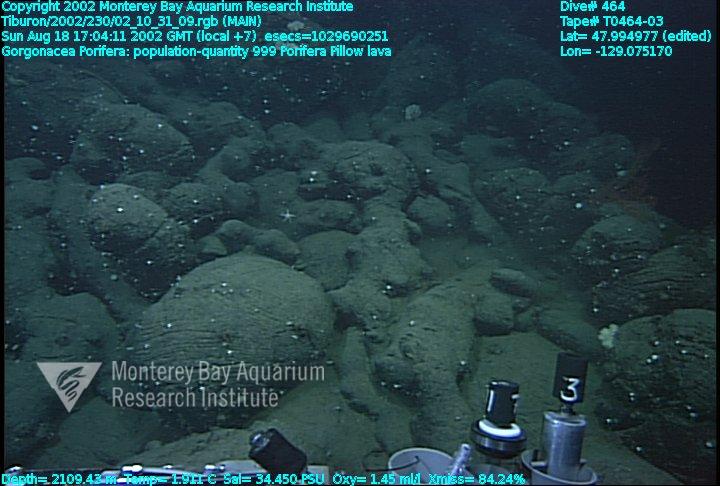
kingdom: Animalia
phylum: Porifera
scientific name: Porifera
